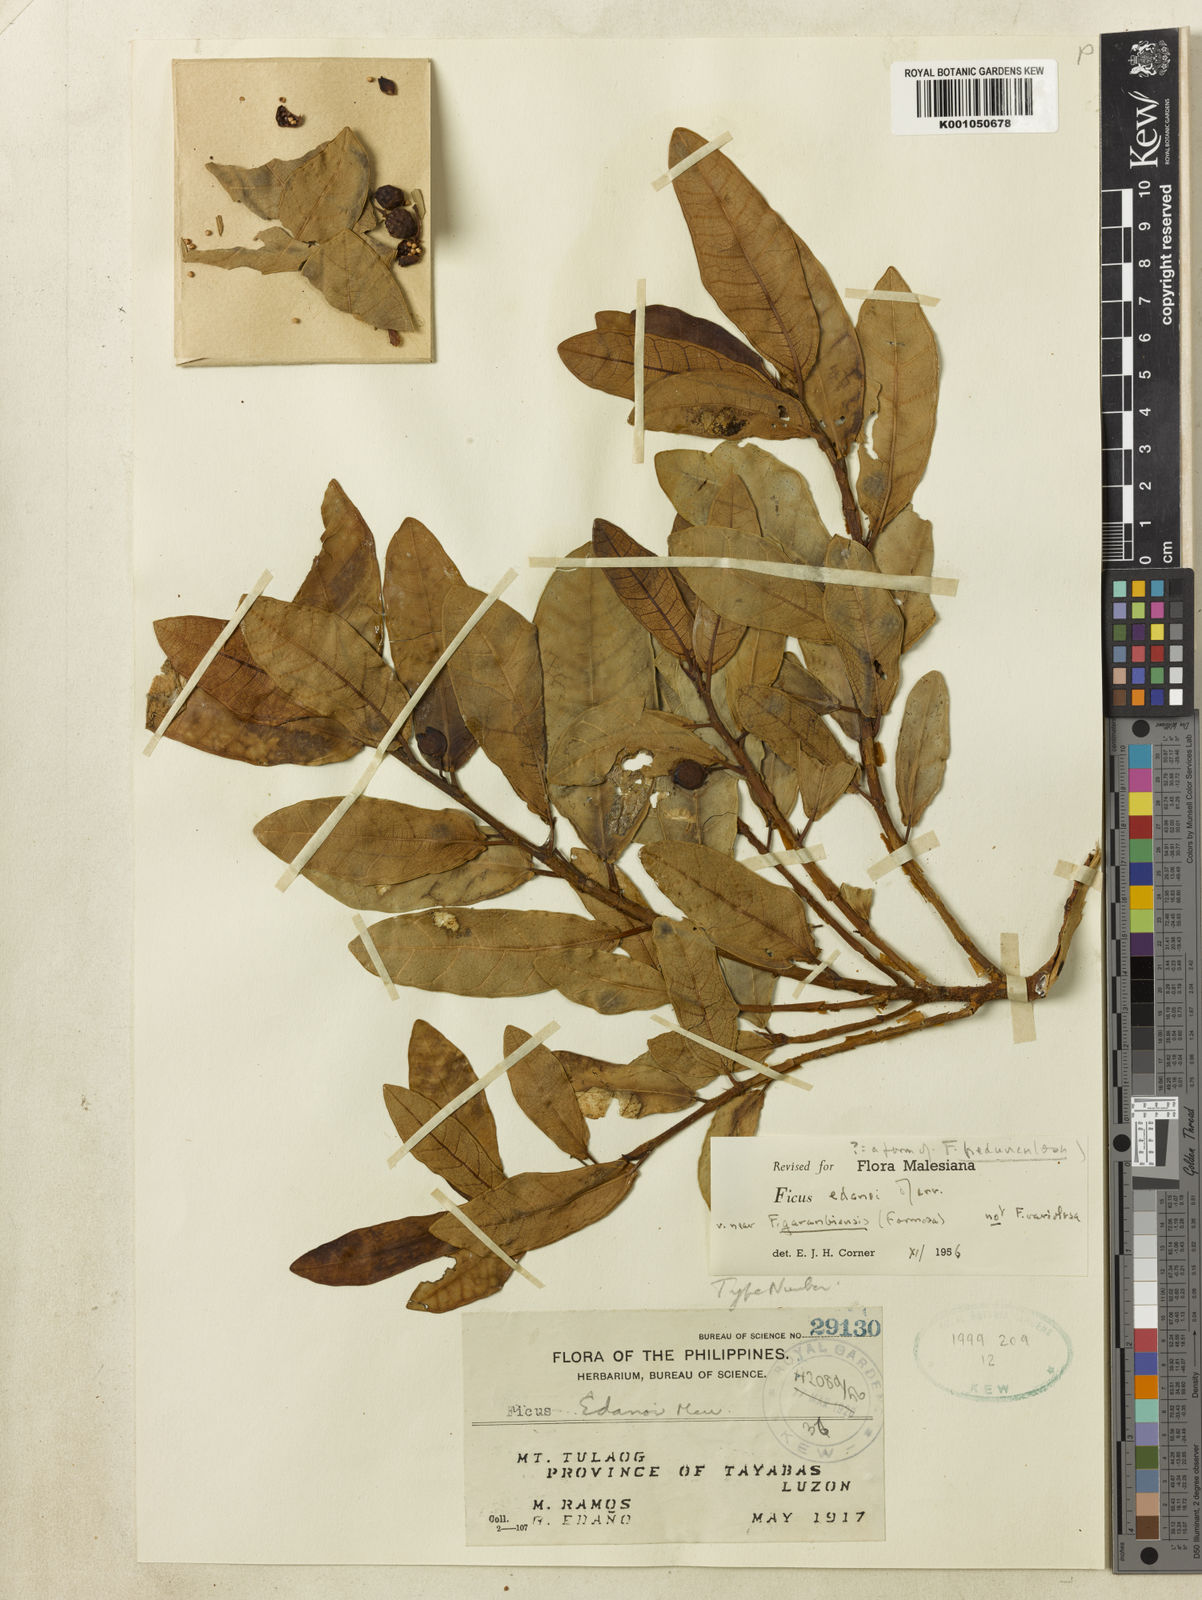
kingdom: Plantae
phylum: Tracheophyta
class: Magnoliopsida
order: Rosales
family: Moraceae
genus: Ficus
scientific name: Ficus edanoi
